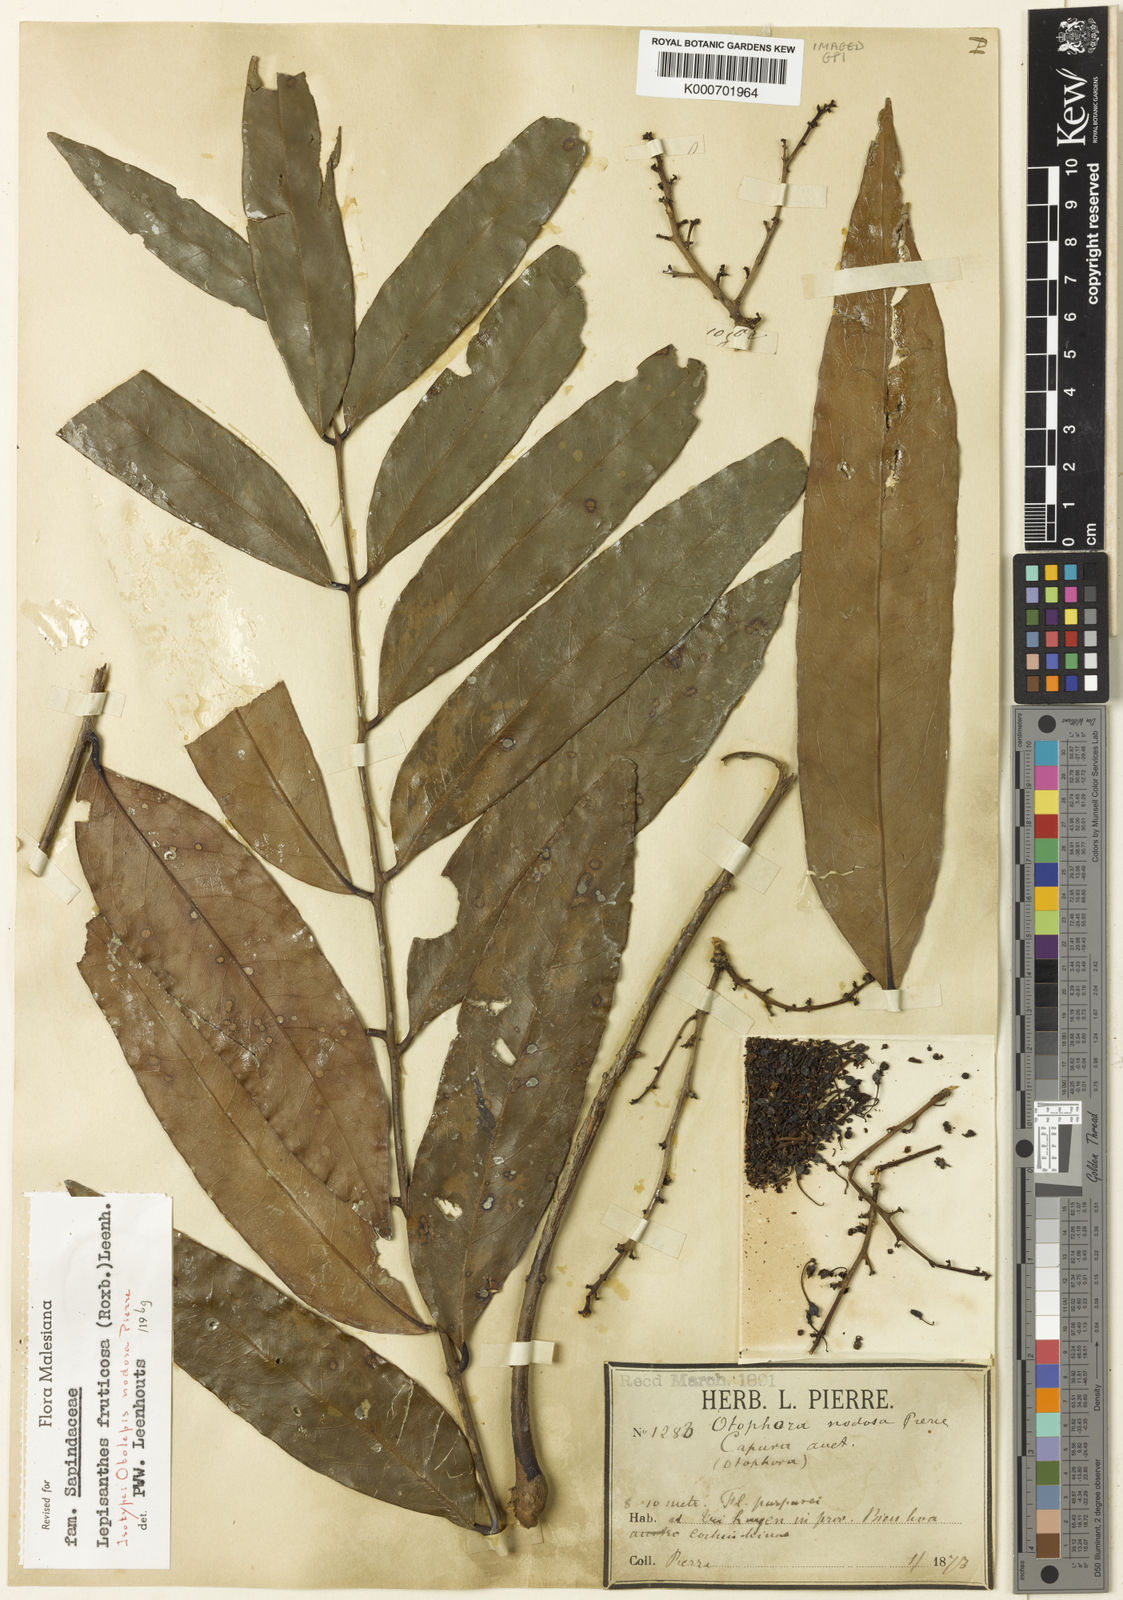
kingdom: Plantae
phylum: Tracheophyta
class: Magnoliopsida
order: Sapindales
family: Sapindaceae
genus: Lepisanthes
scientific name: Lepisanthes fruticosa
